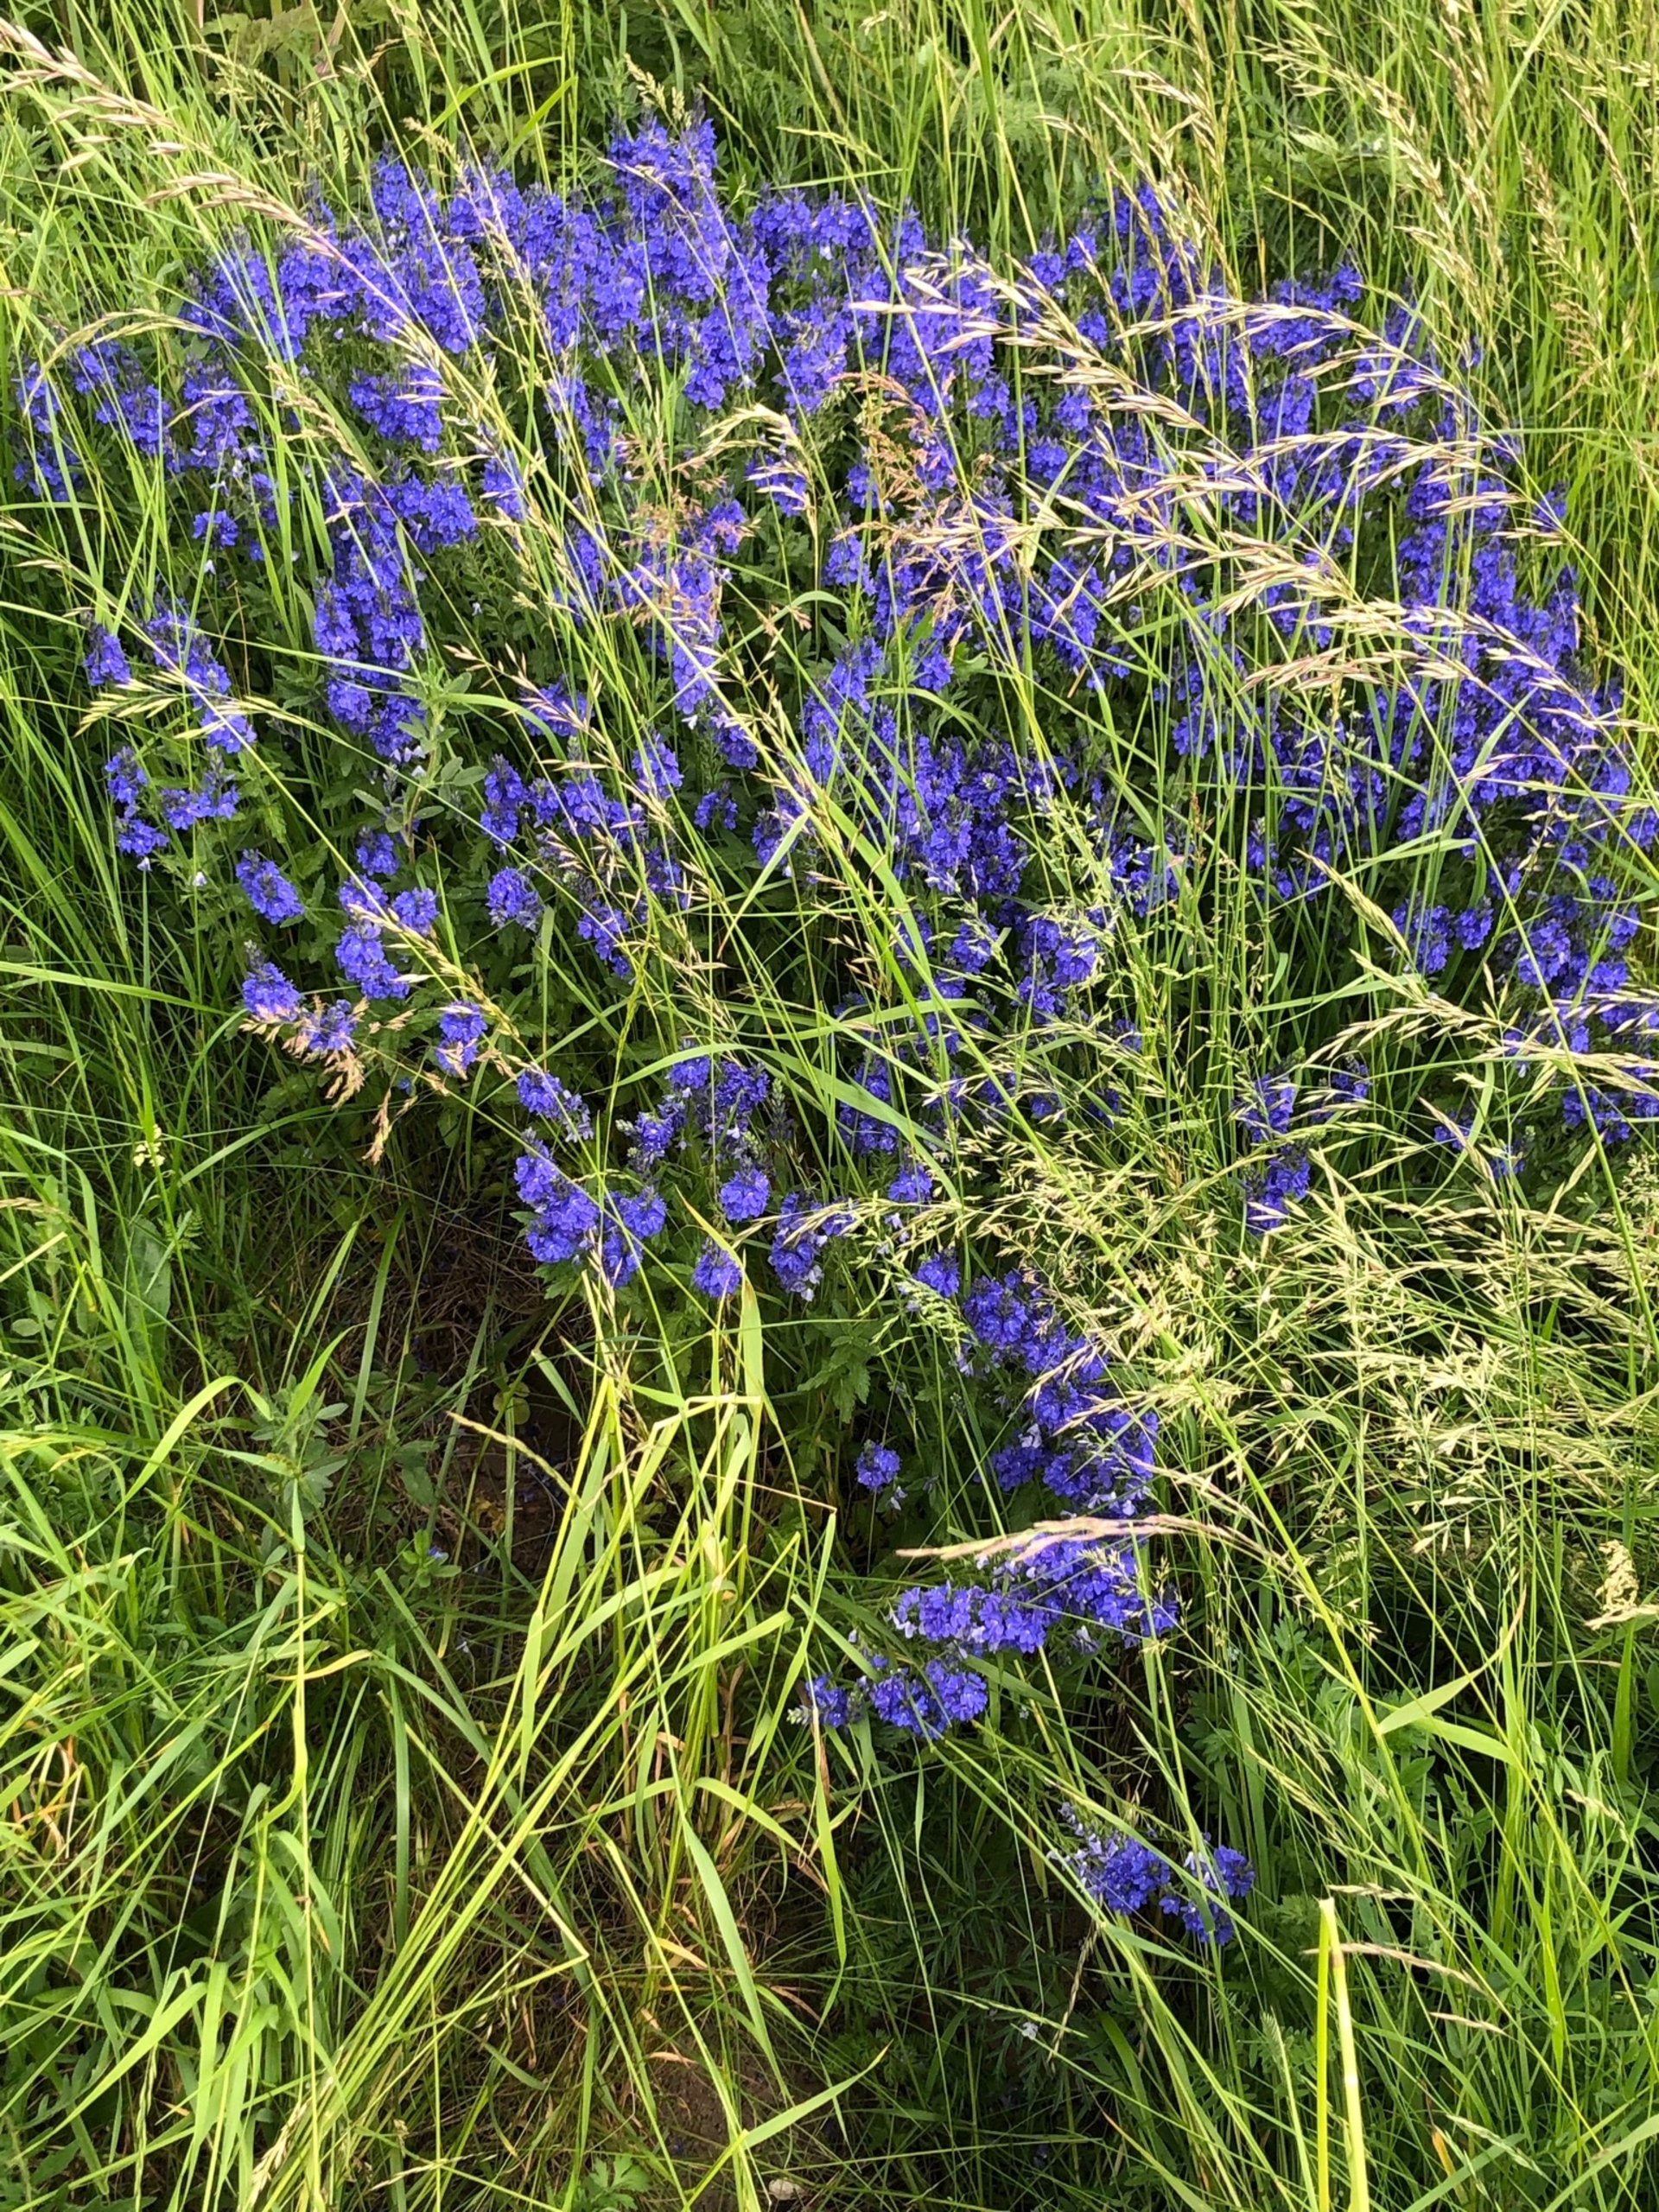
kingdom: Plantae
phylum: Tracheophyta
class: Magnoliopsida
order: Lamiales
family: Plantaginaceae
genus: Veronica
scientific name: Veronica teucrium
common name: Bredbladet ærenpris
